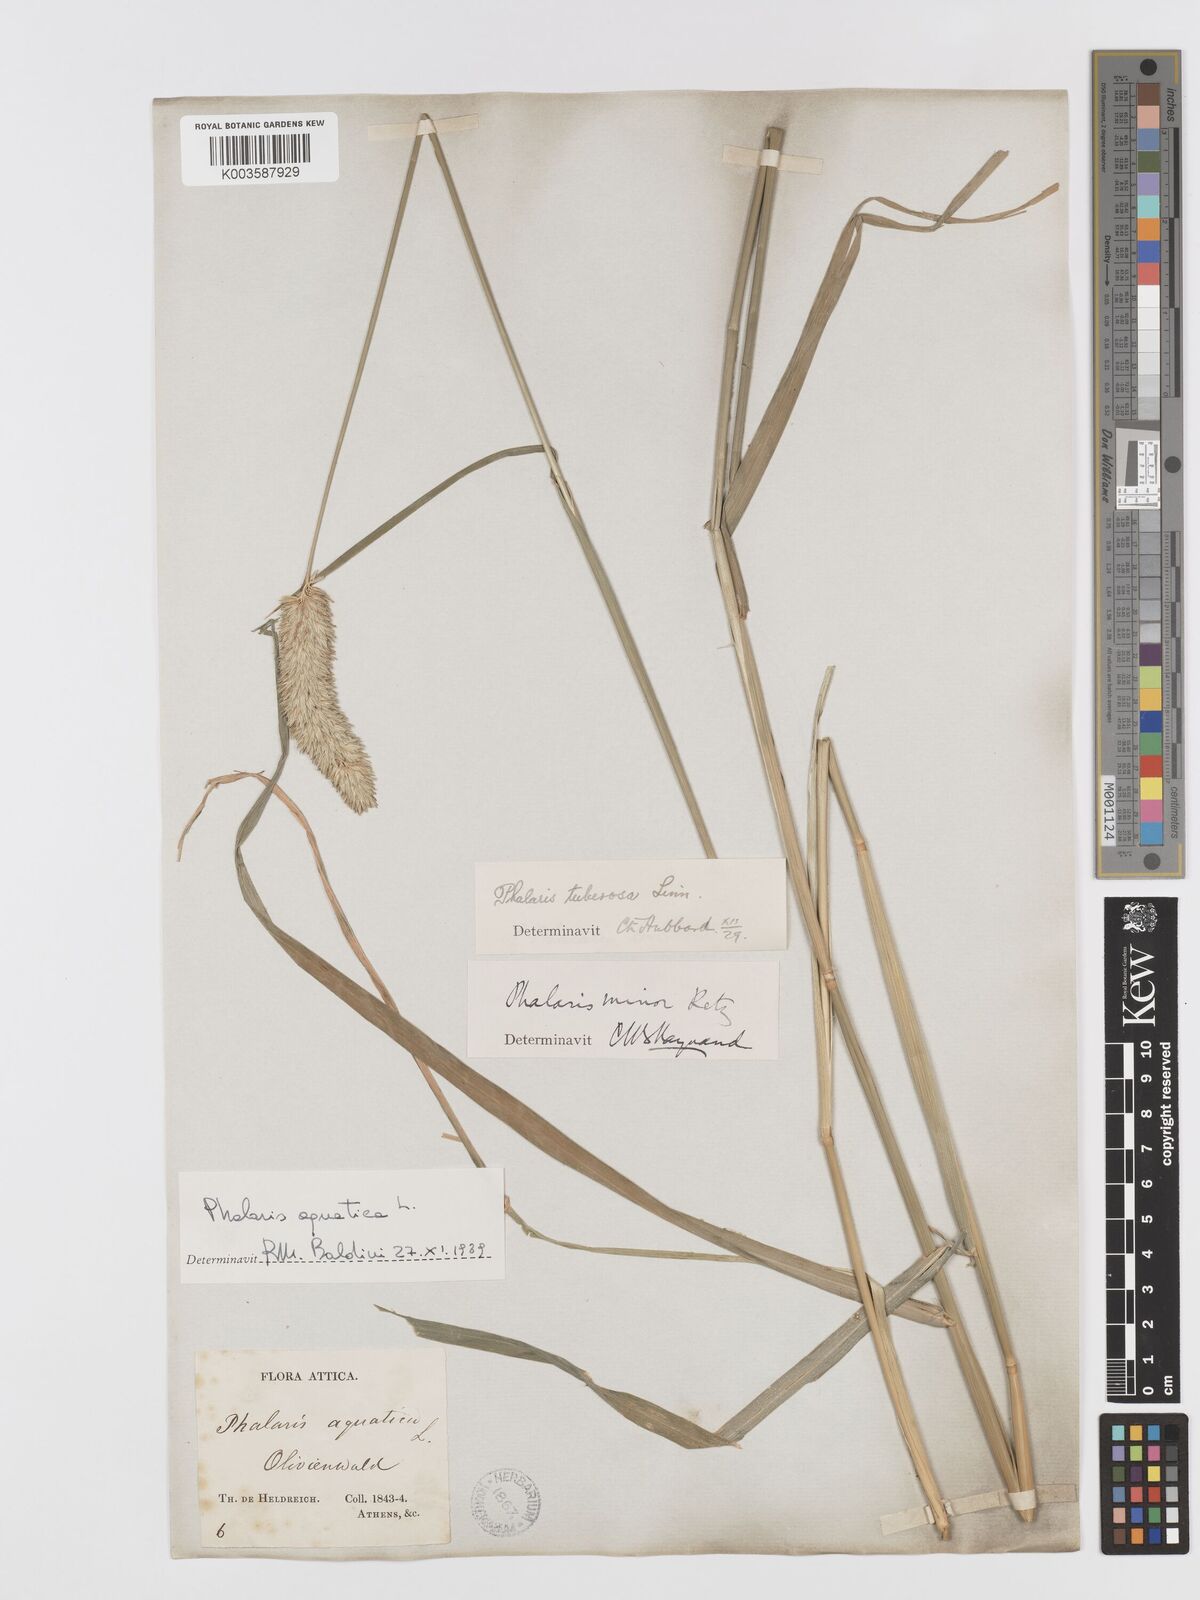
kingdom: Plantae
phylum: Tracheophyta
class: Liliopsida
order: Poales
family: Poaceae
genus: Phalaris
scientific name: Phalaris
